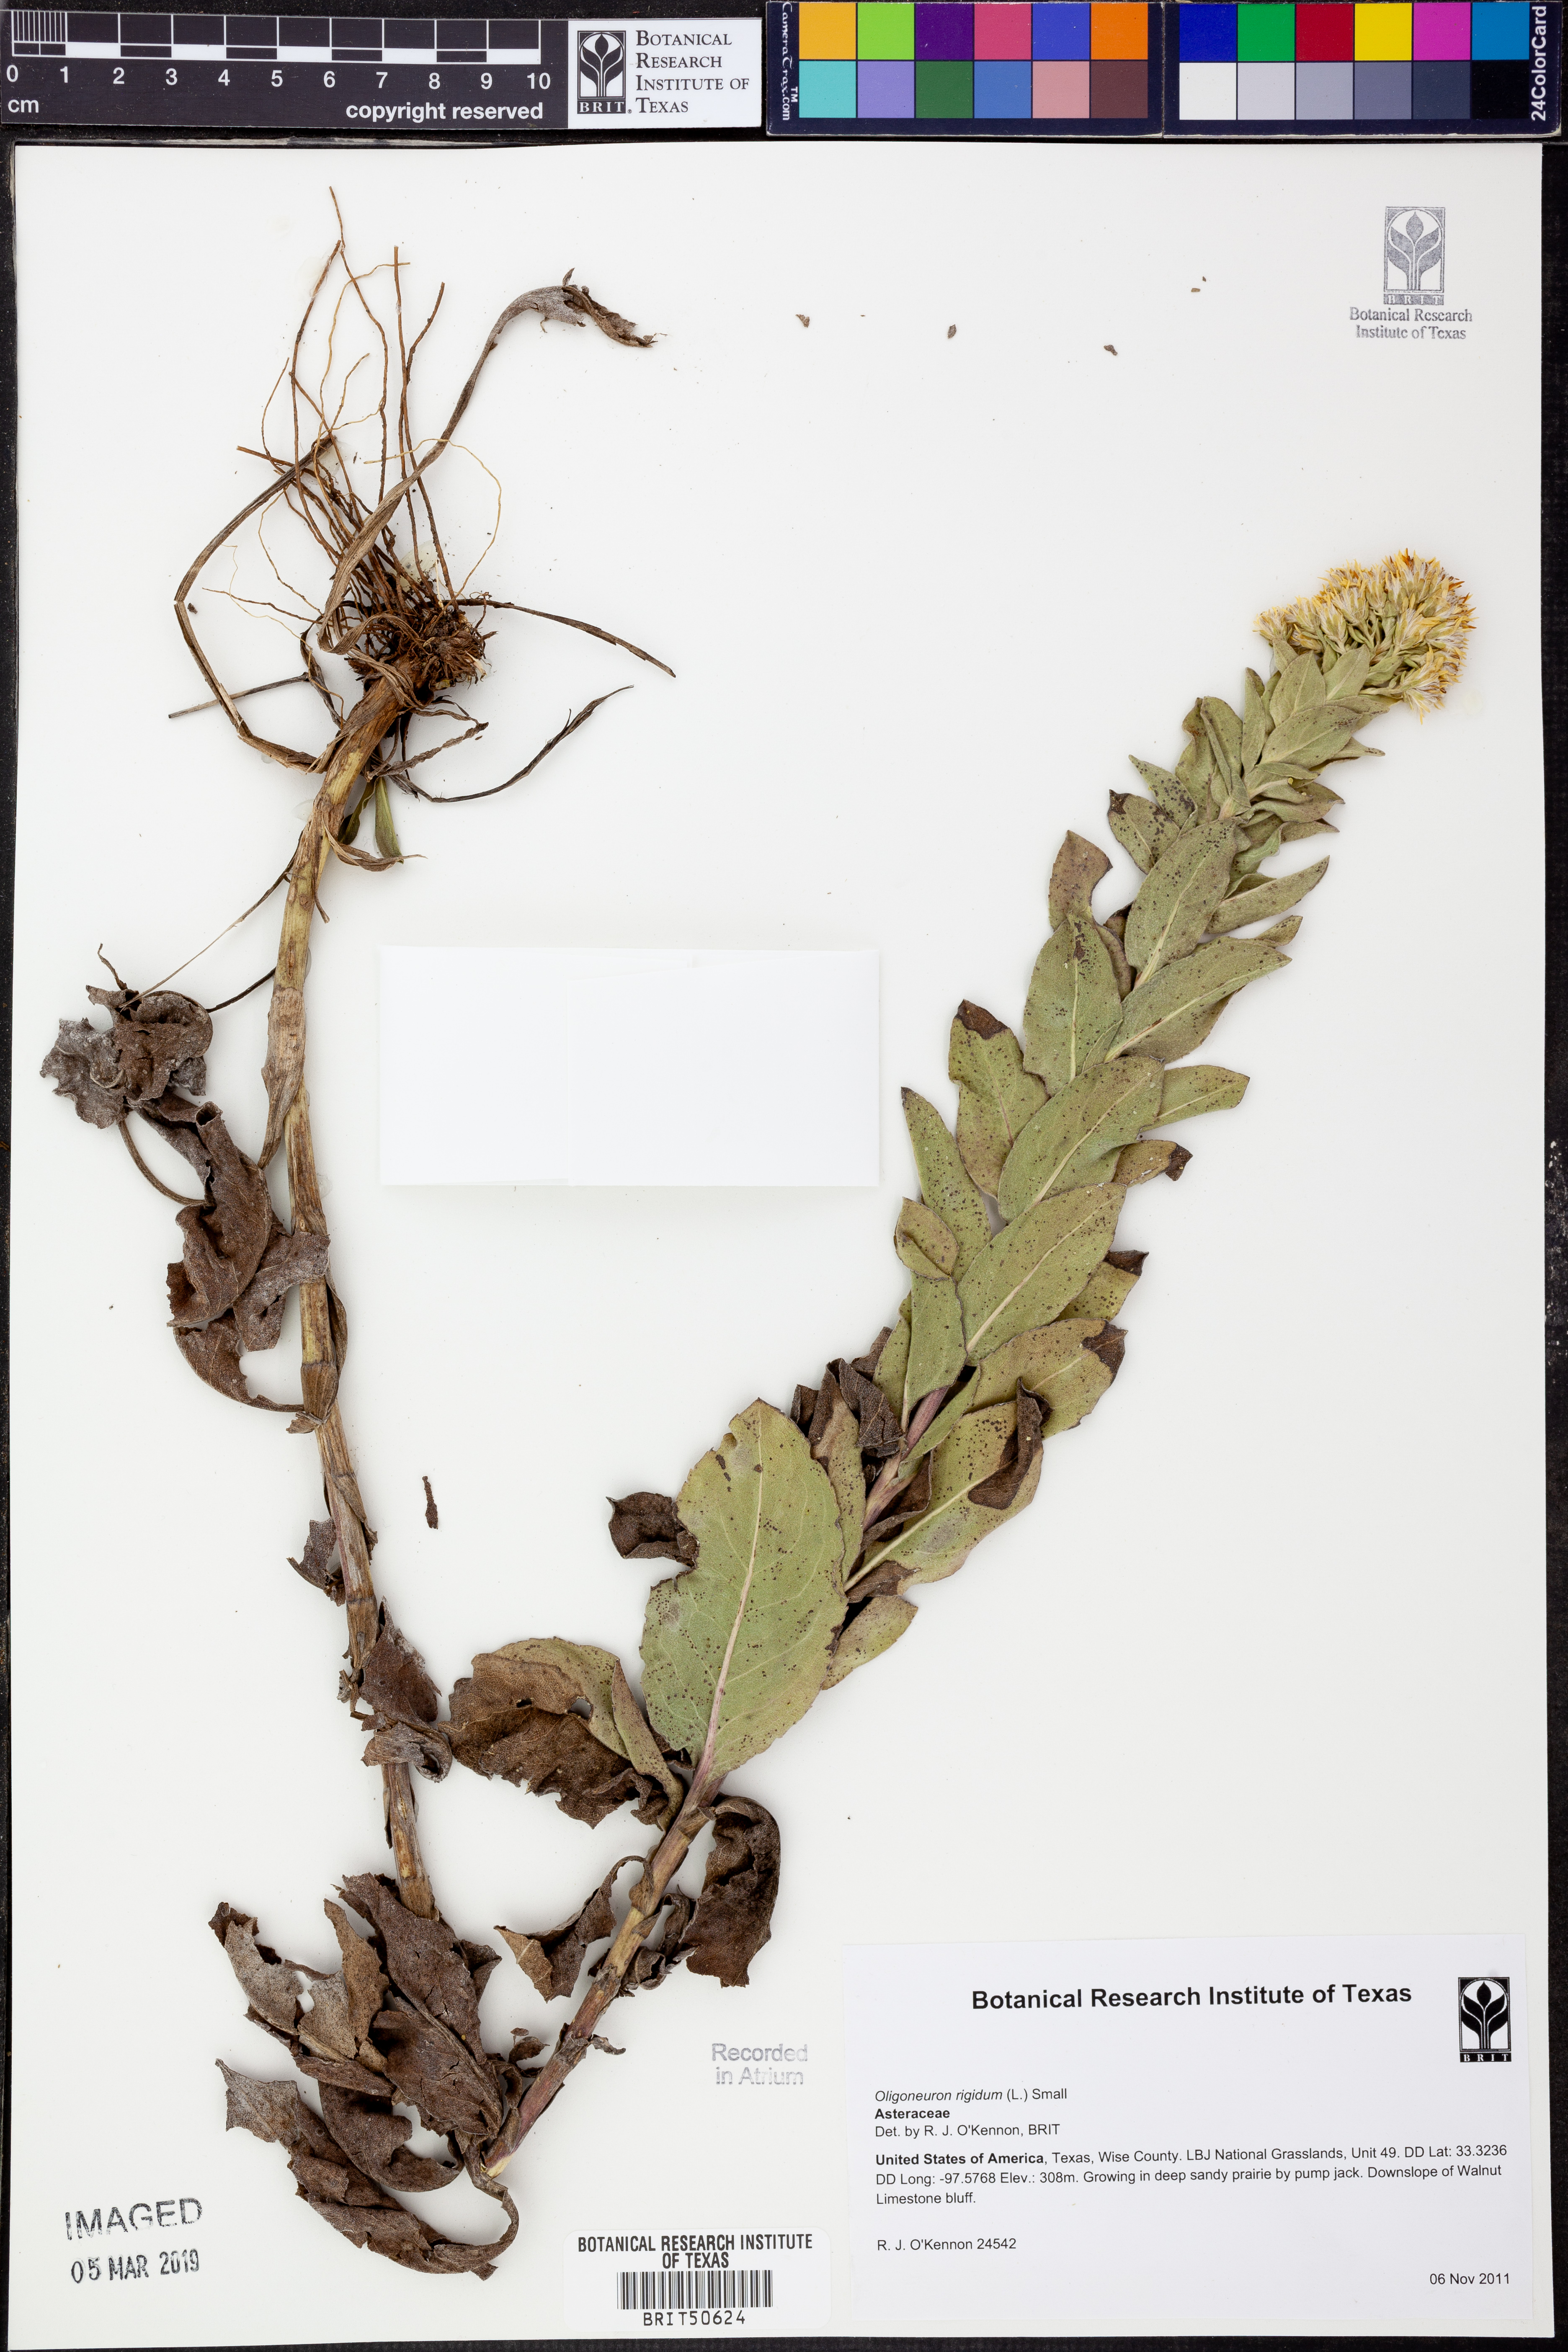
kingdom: Plantae
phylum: Tracheophyta
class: Magnoliopsida
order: Asterales
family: Asteraceae
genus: Solidago
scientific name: Solidago rigida
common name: Rigid goldenrod
